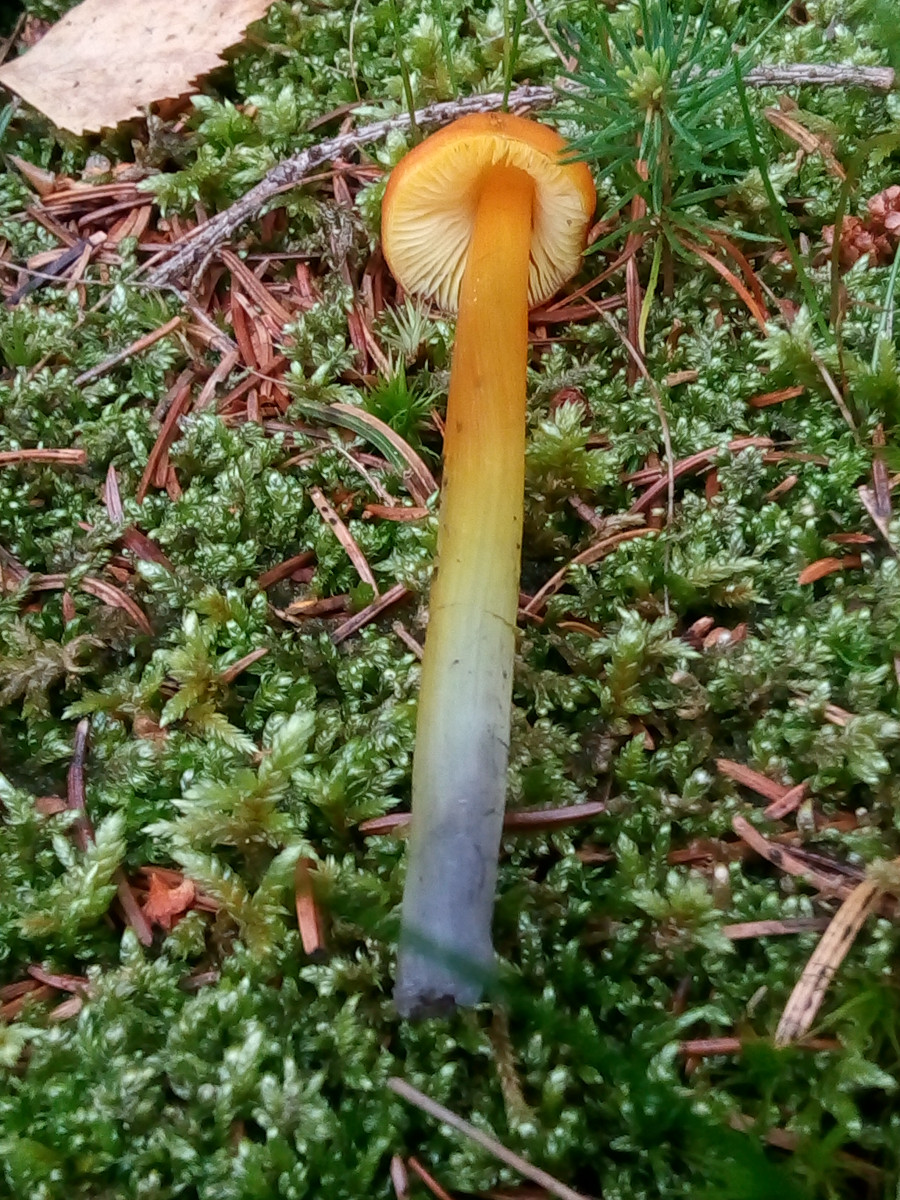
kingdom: Fungi
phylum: Basidiomycota
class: Agaricomycetes
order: Agaricales
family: Hygrophoraceae
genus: Hygrocybe
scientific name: Hygrocybe conica
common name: kegle-vokshat
